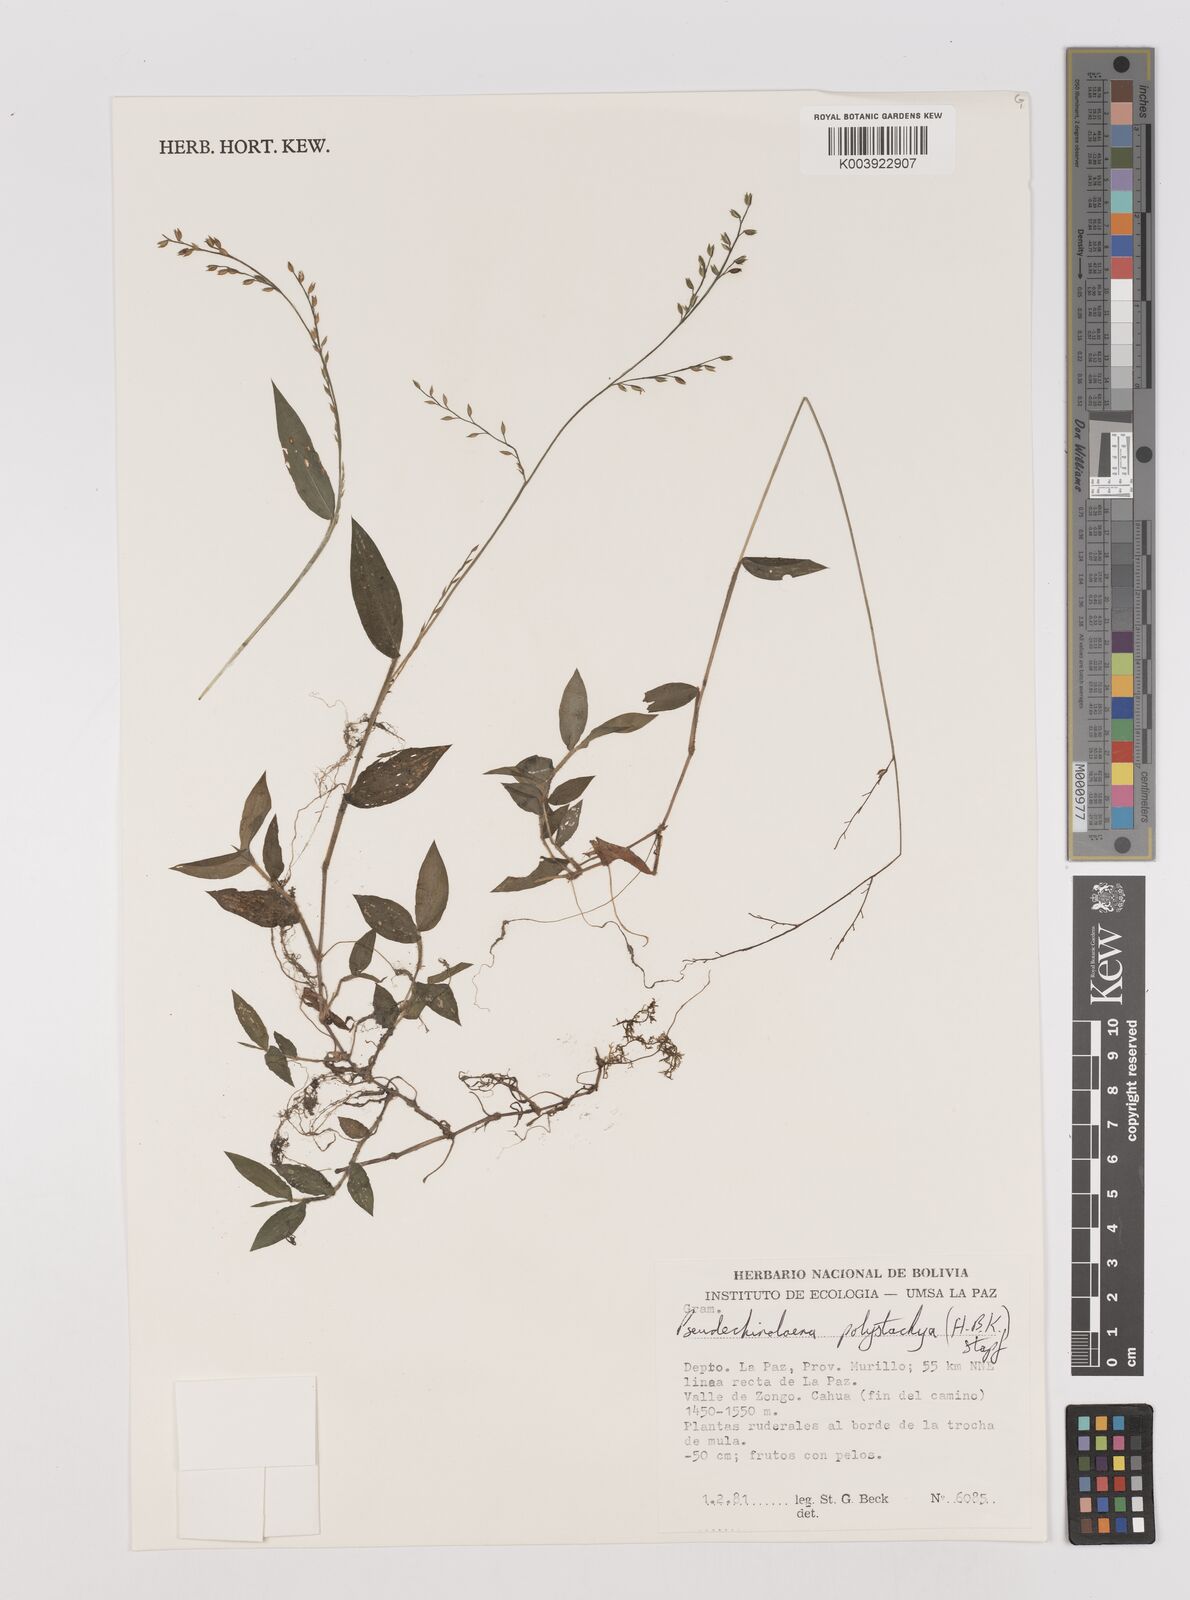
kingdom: Plantae
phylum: Tracheophyta
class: Liliopsida
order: Poales
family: Poaceae
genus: Pseudechinolaena
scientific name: Pseudechinolaena polystachya
